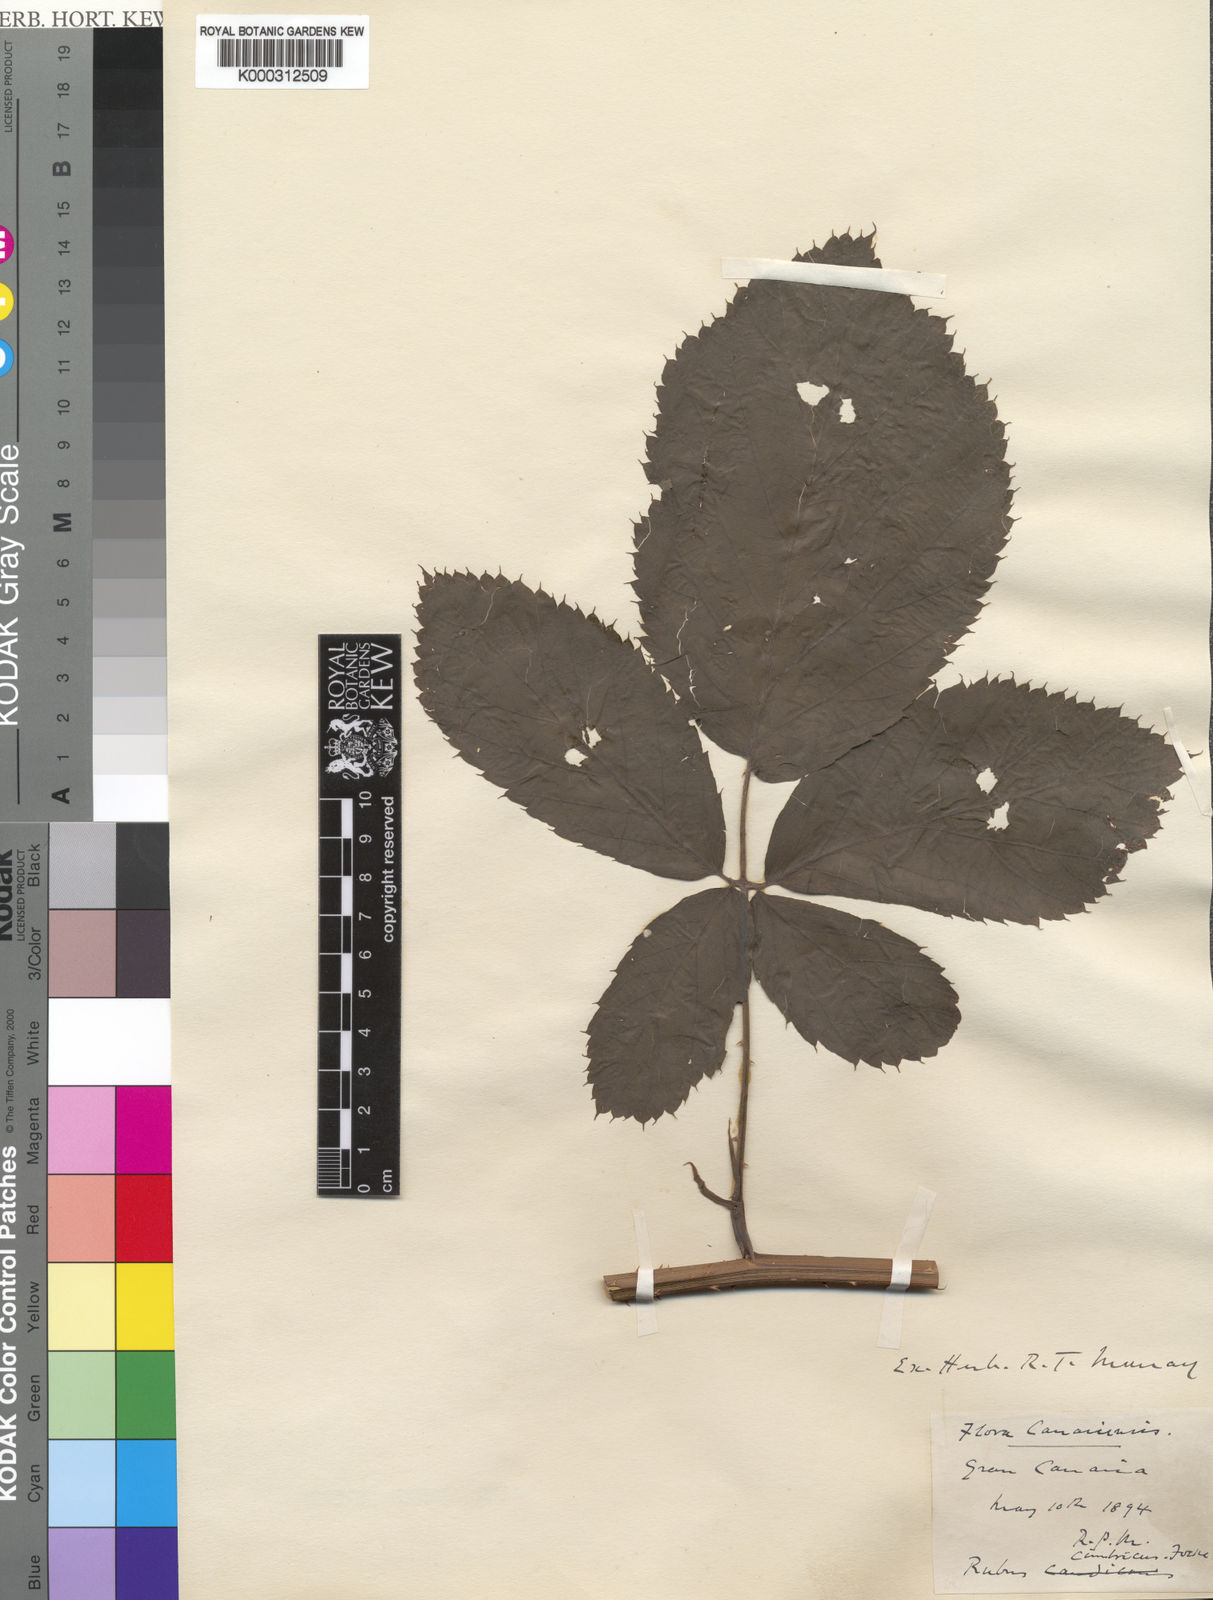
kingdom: Plantae
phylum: Tracheophyta
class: Magnoliopsida
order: Rosales
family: Rosaceae
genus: Rubus
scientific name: Rubus cimbricus
